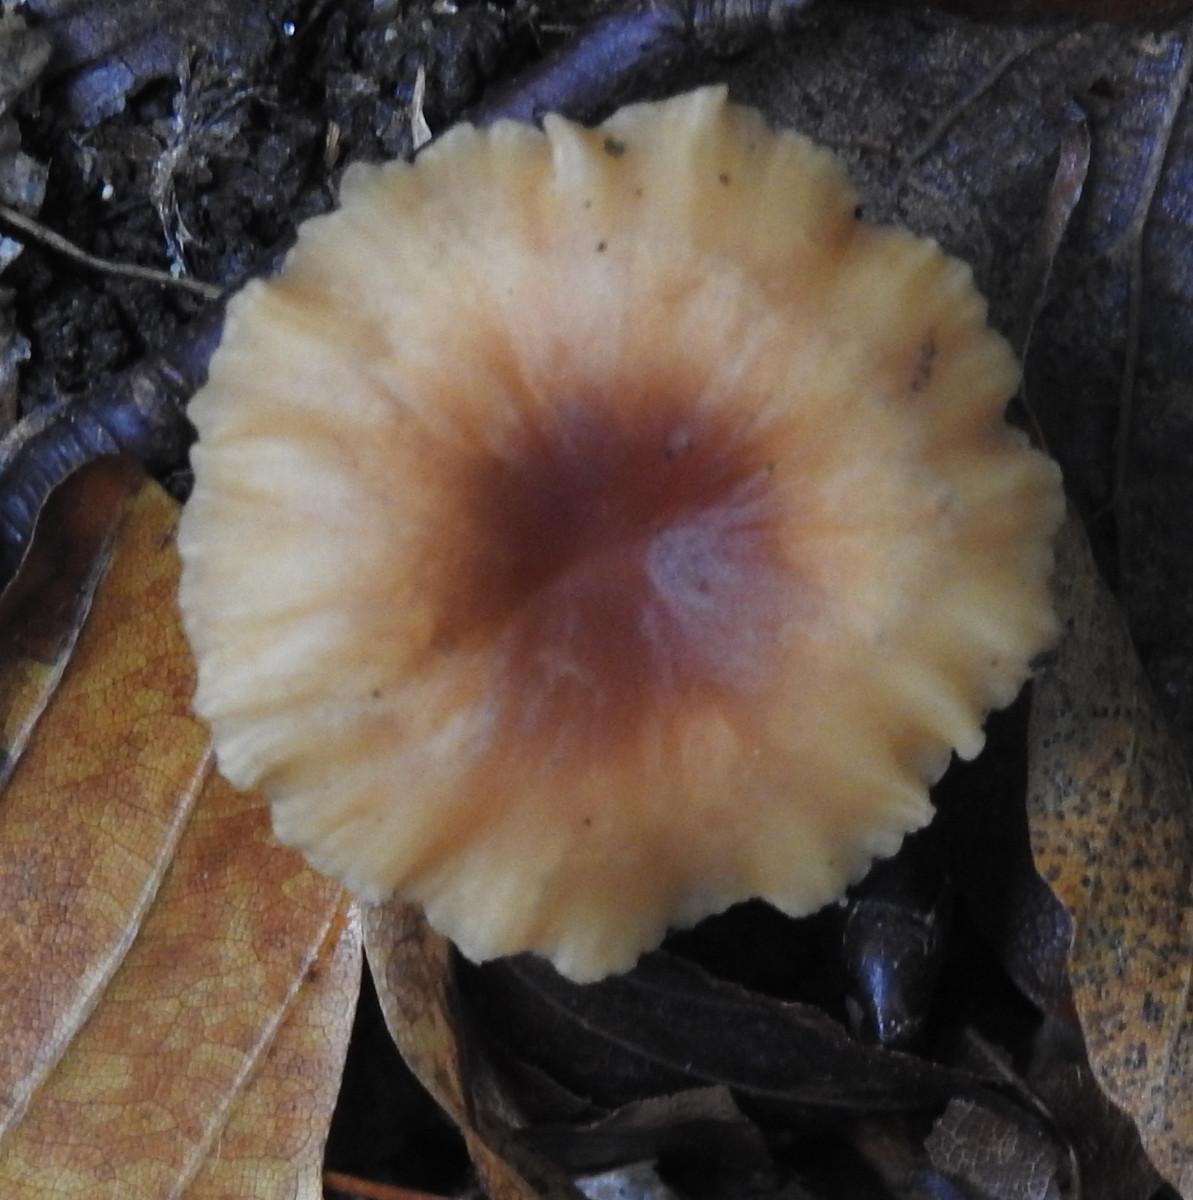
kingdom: Fungi
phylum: Basidiomycota
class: Agaricomycetes
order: Agaricales
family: Omphalotaceae
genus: Gymnopus
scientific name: Gymnopus
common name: fladhat
